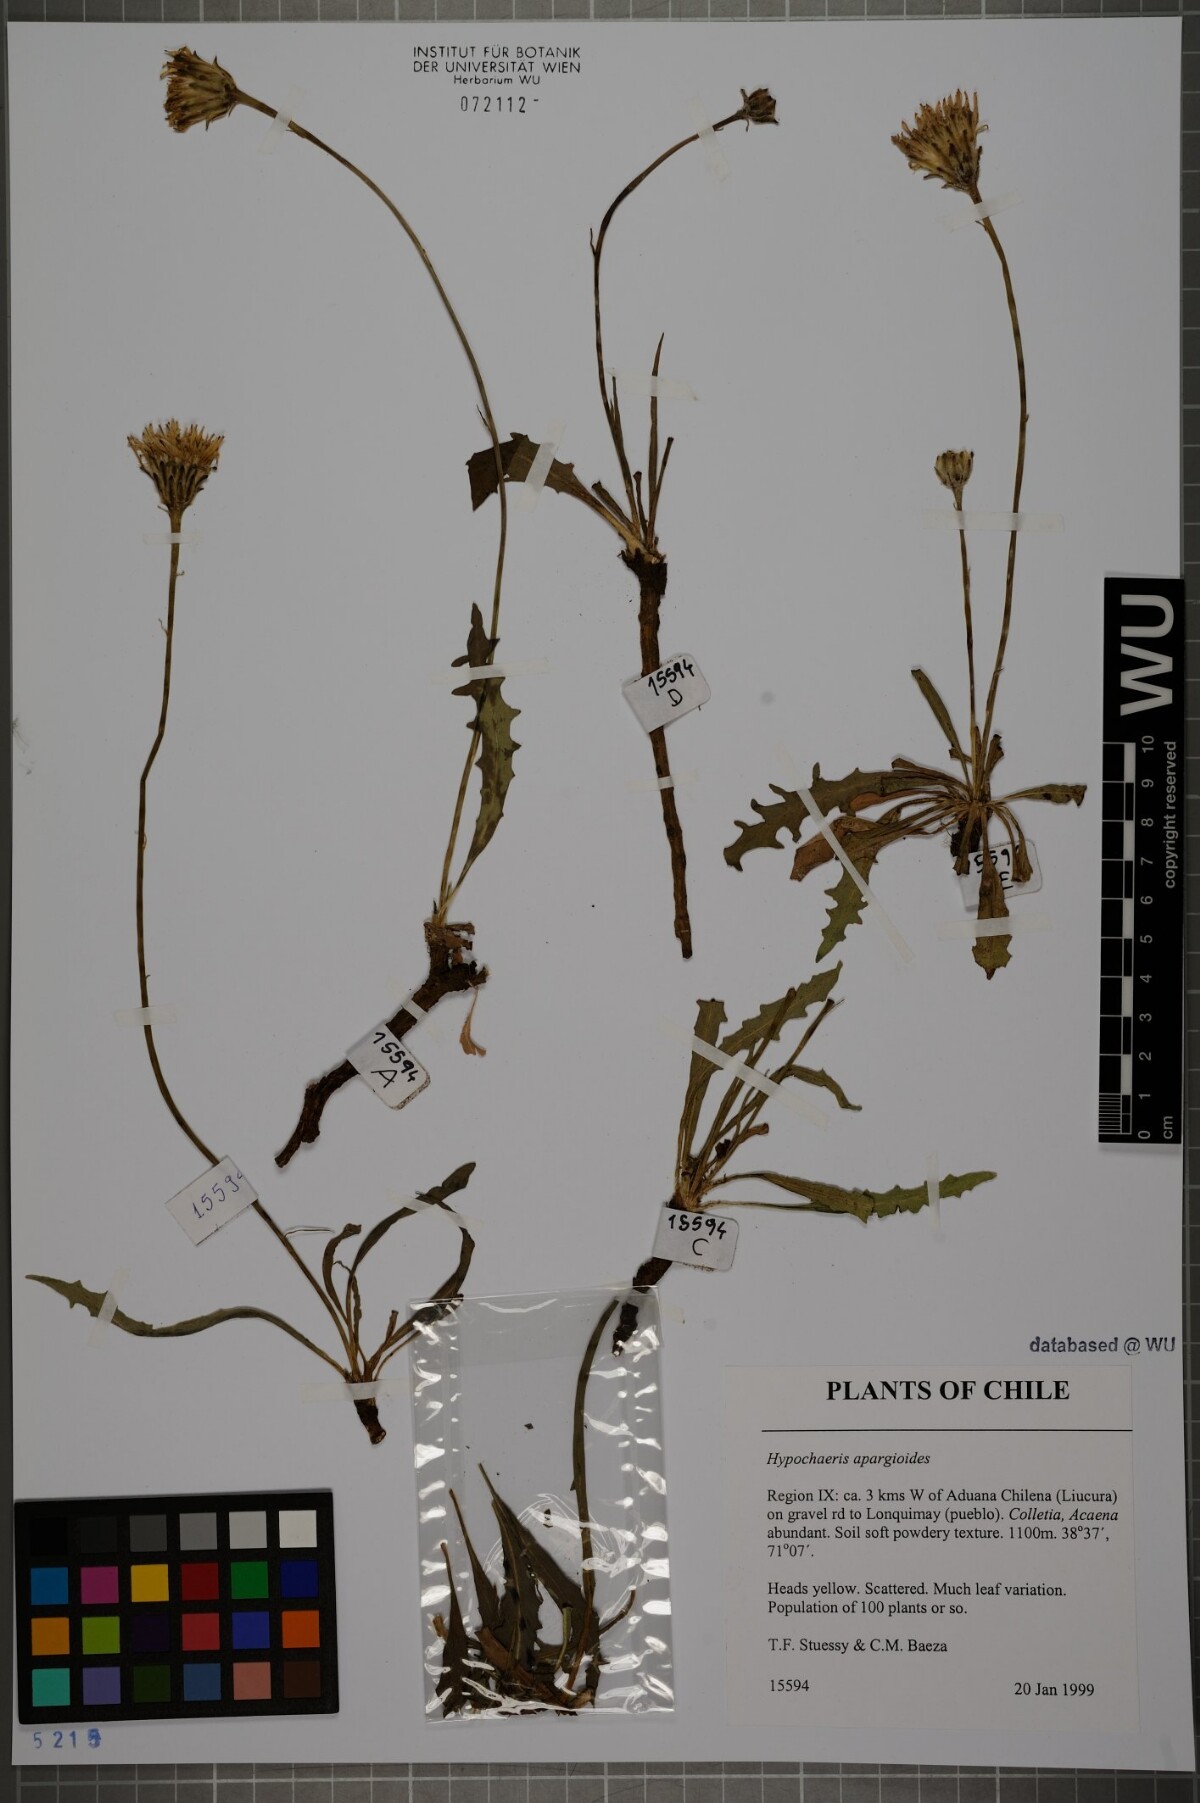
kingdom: Plantae
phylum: Tracheophyta
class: Magnoliopsida
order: Asterales
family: Asteraceae
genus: Hypochaeris
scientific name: Hypochaeris apargioides
